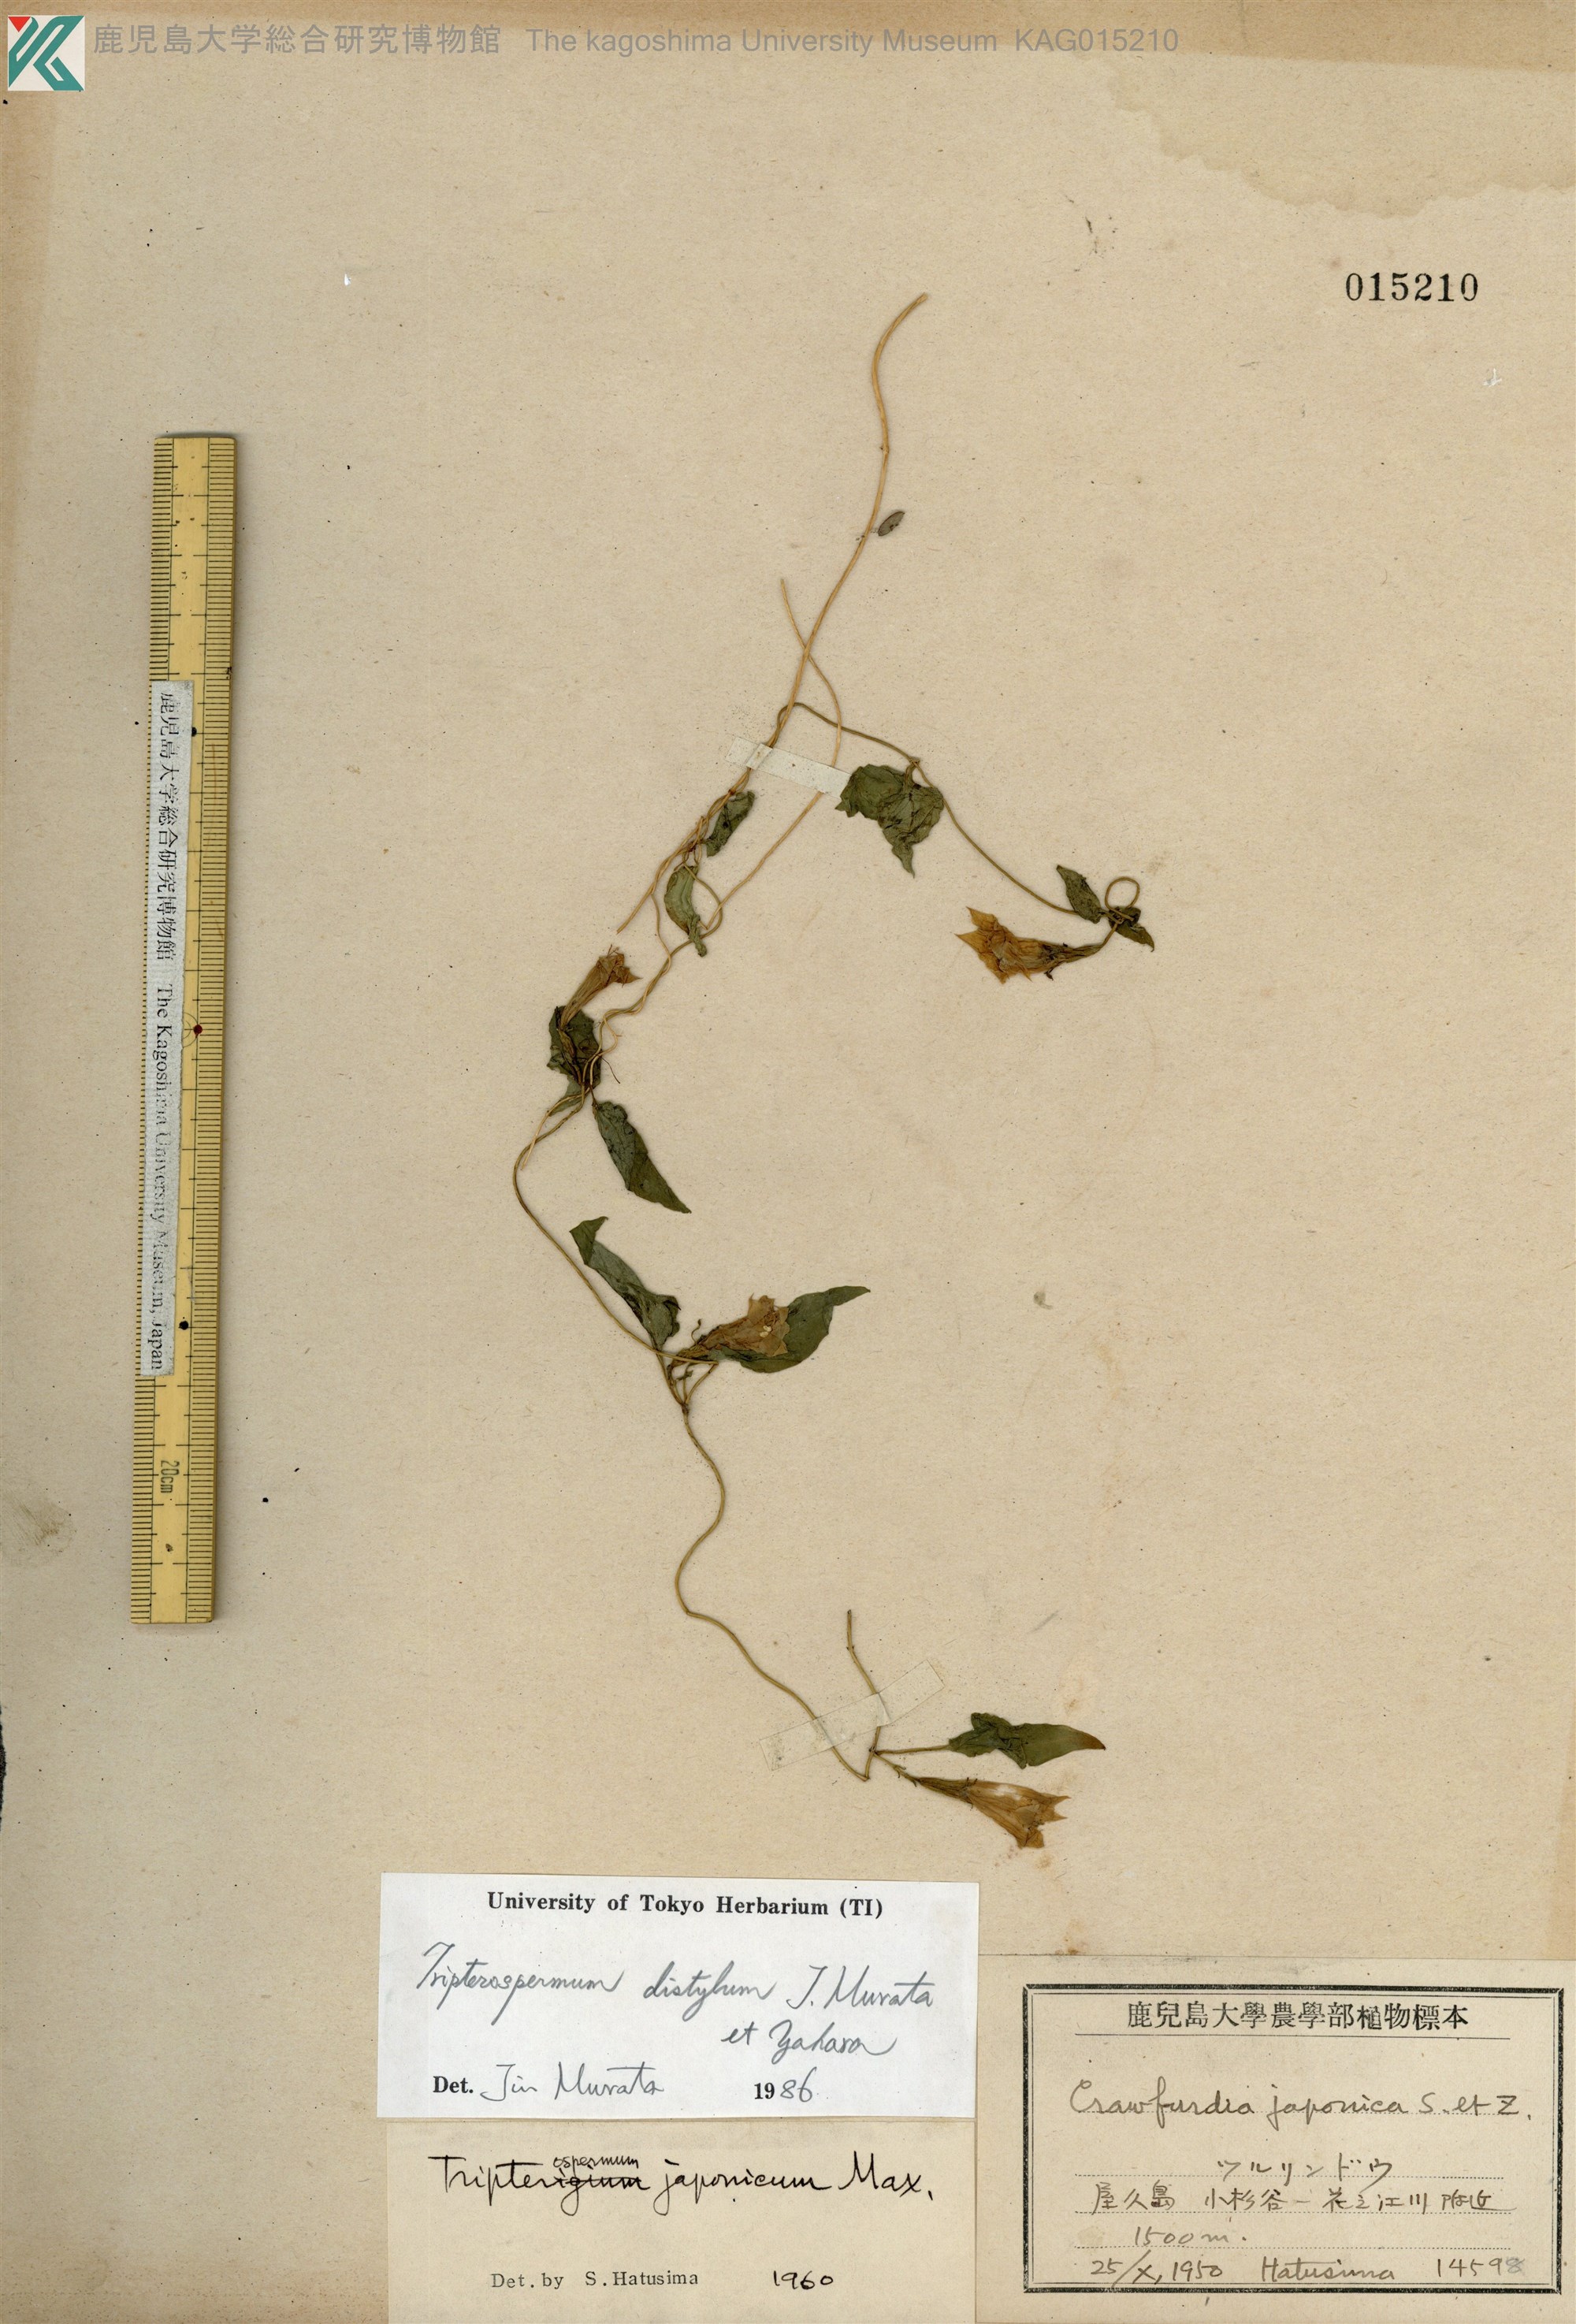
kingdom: Plantae
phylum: Tracheophyta
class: Magnoliopsida
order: Gentianales
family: Gentianaceae
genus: Tripterospermum
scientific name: Tripterospermum distylum
